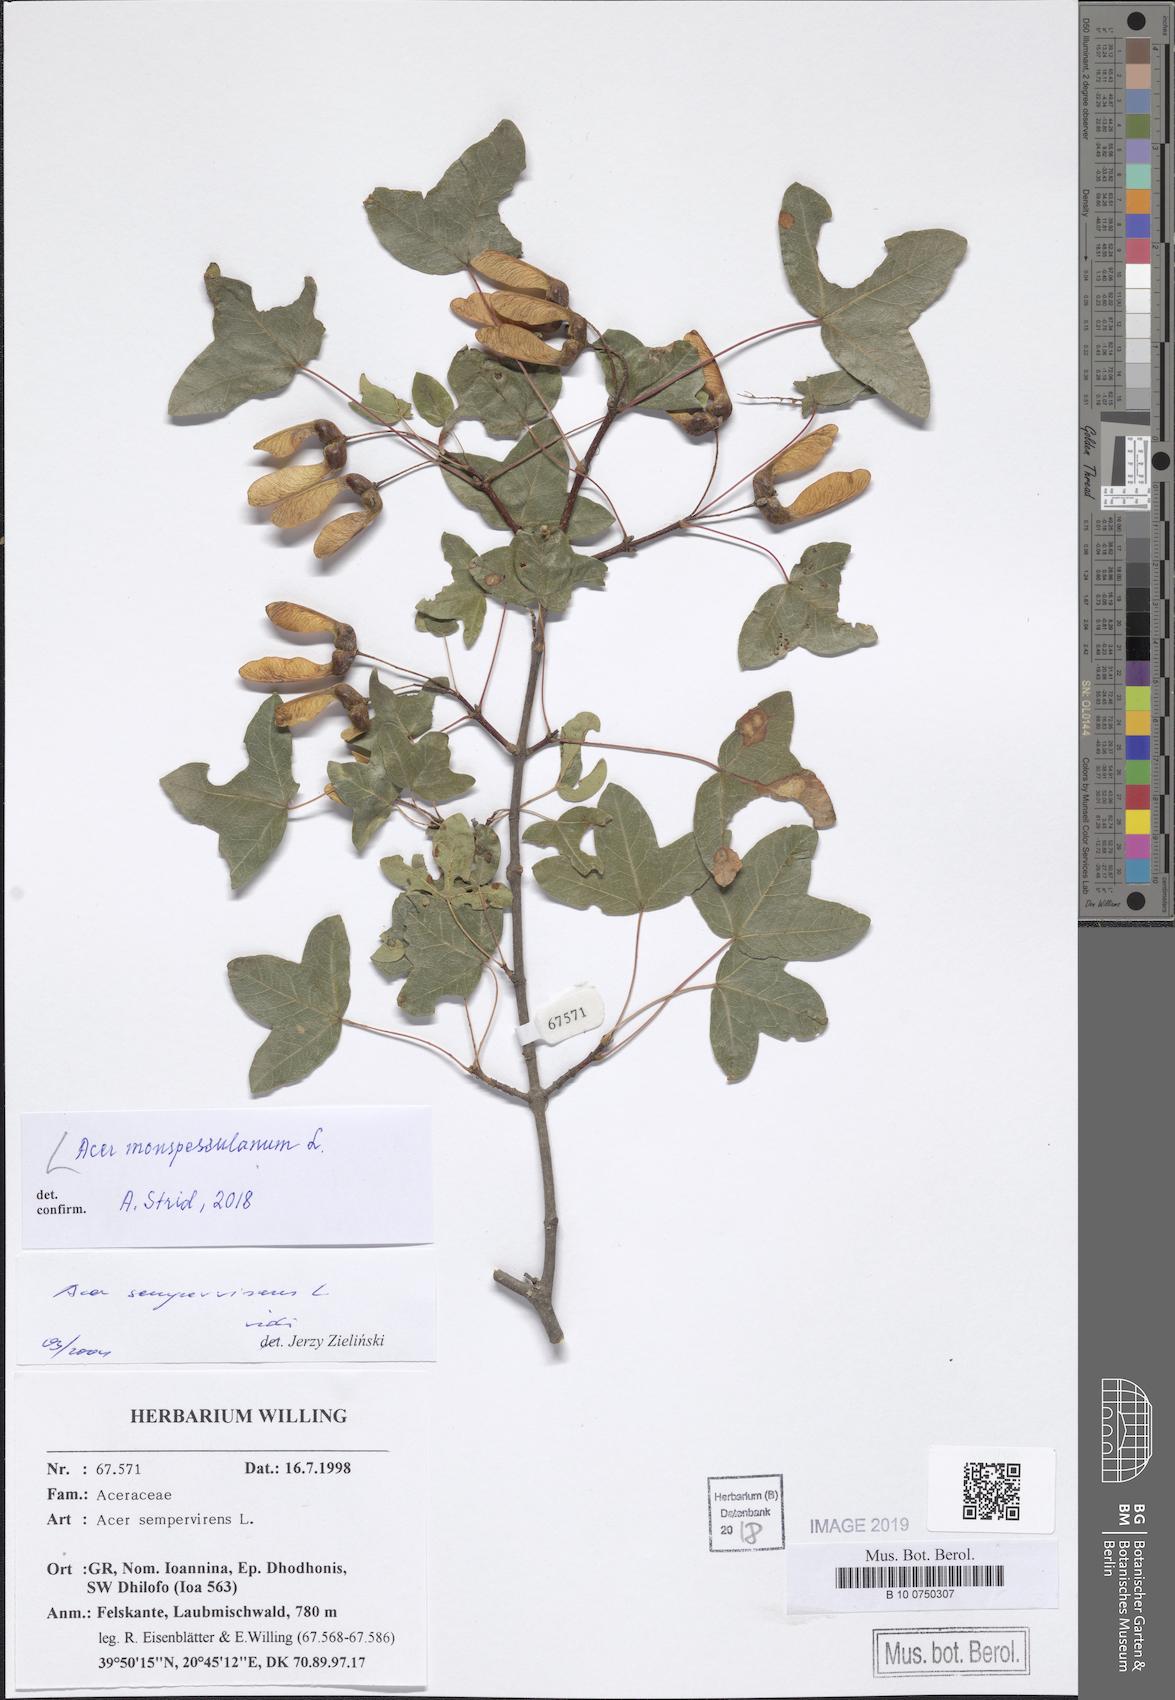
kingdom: Plantae
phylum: Tracheophyta
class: Magnoliopsida
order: Sapindales
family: Sapindaceae
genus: Acer
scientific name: Acer monspessulanum
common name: Montpellier maple
